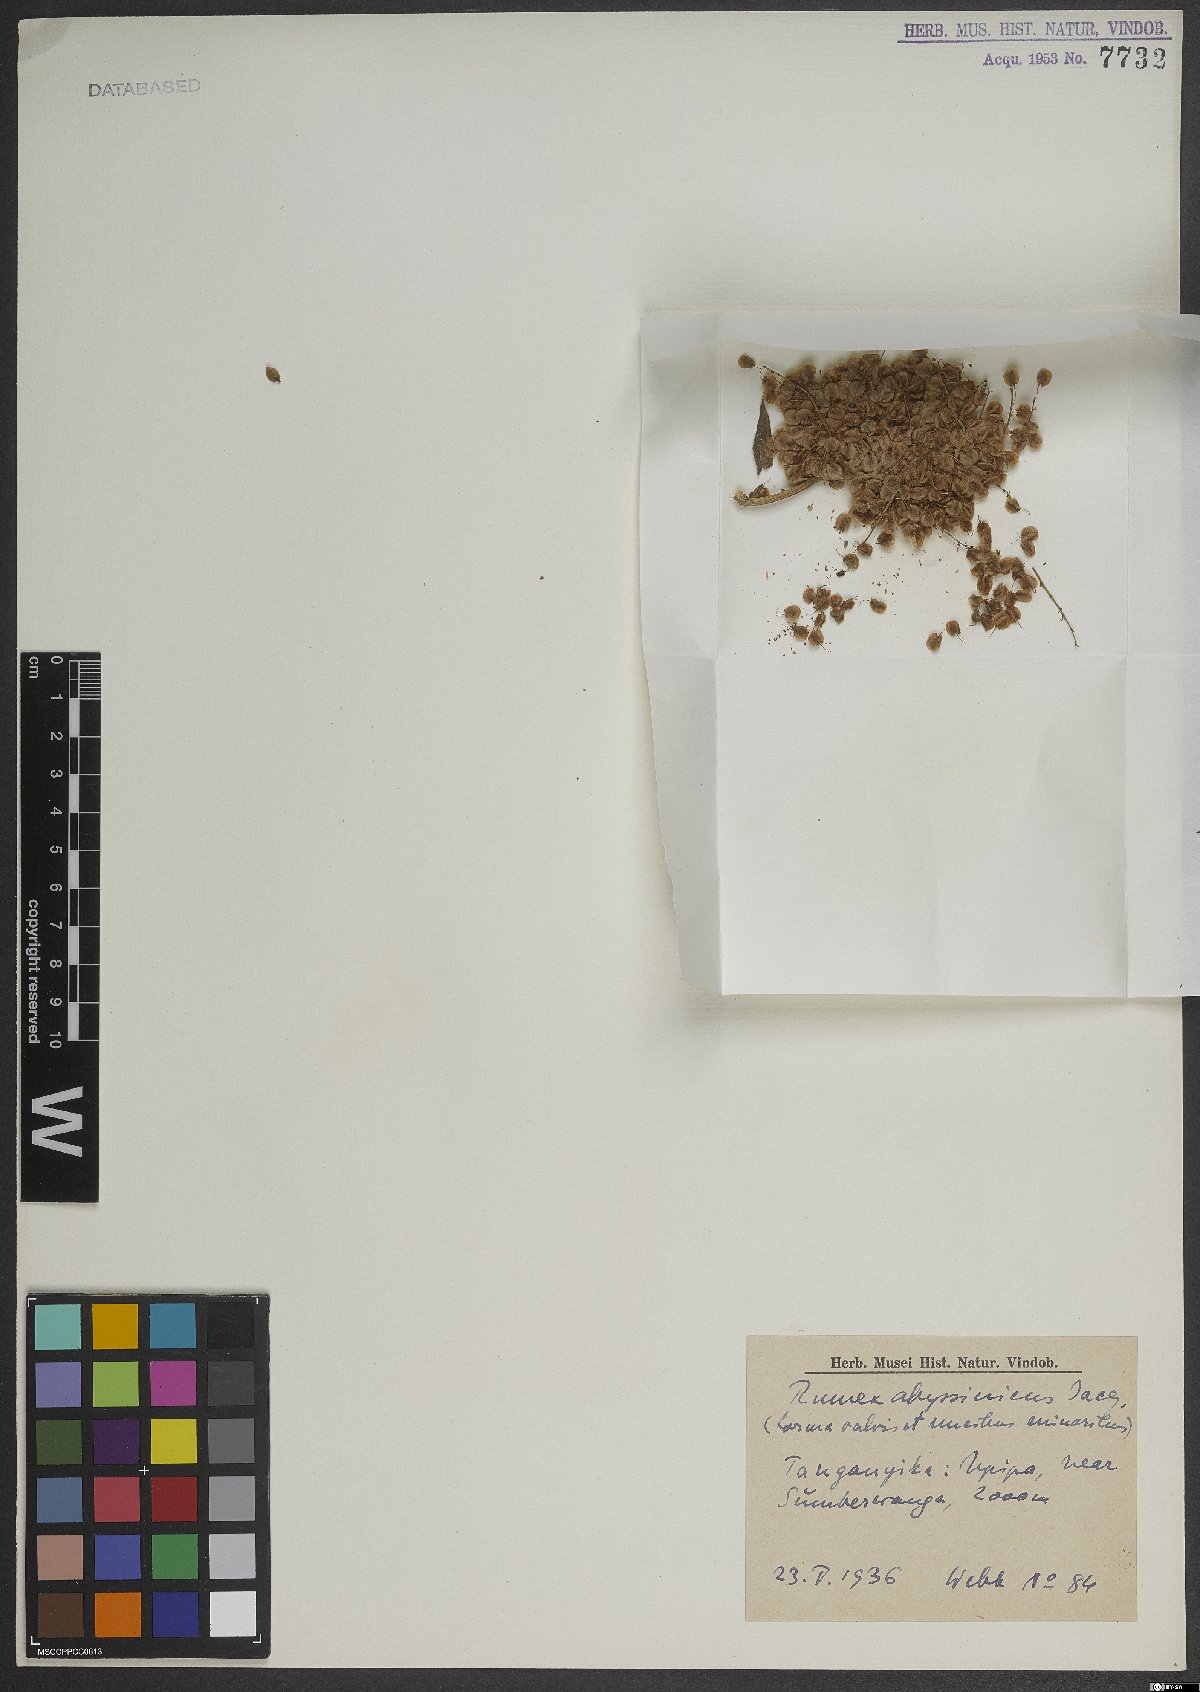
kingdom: Plantae
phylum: Tracheophyta
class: Magnoliopsida
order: Caryophyllales
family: Polygonaceae
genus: Rumex
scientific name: Rumex abyssinicus
